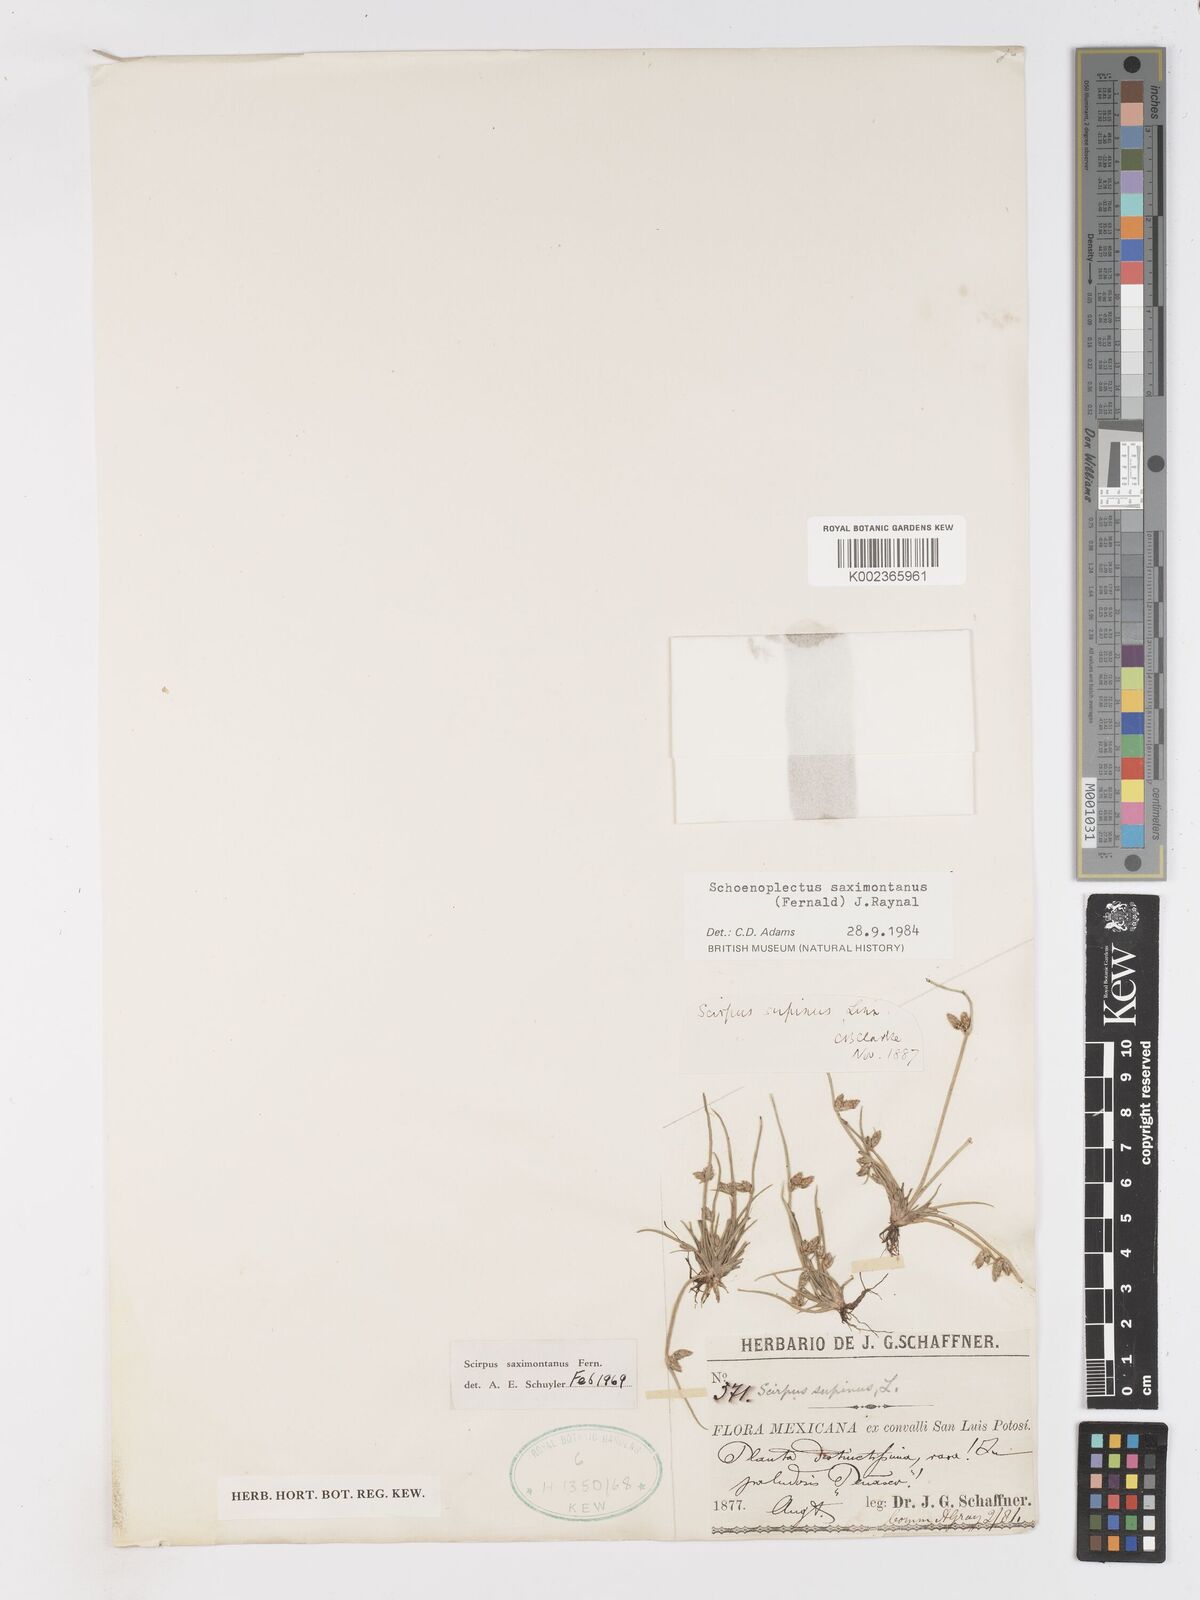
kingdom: Plantae
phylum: Tracheophyta
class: Liliopsida
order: Poales
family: Cyperaceae
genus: Schoenoplectiella
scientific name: Schoenoplectiella saximontana
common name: Rocky mountain clubrush
